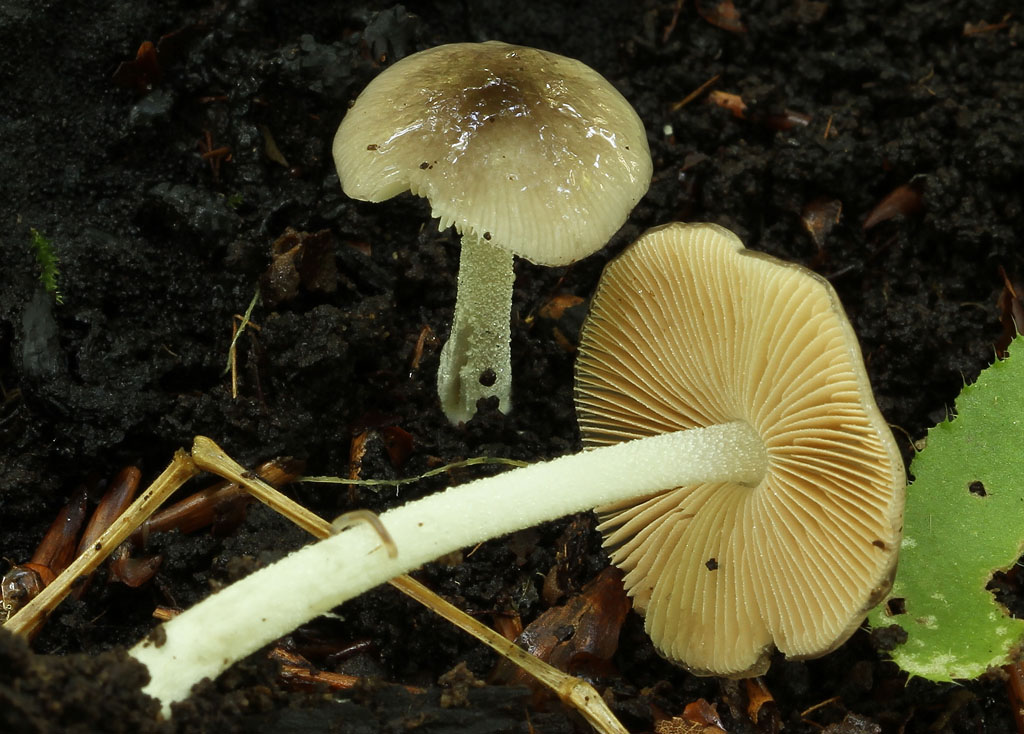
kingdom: Fungi
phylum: Basidiomycota
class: Agaricomycetes
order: Agaricales
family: Bolbitiaceae
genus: Bolbitius
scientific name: Bolbitius reticulatus
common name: netåret gulhat
